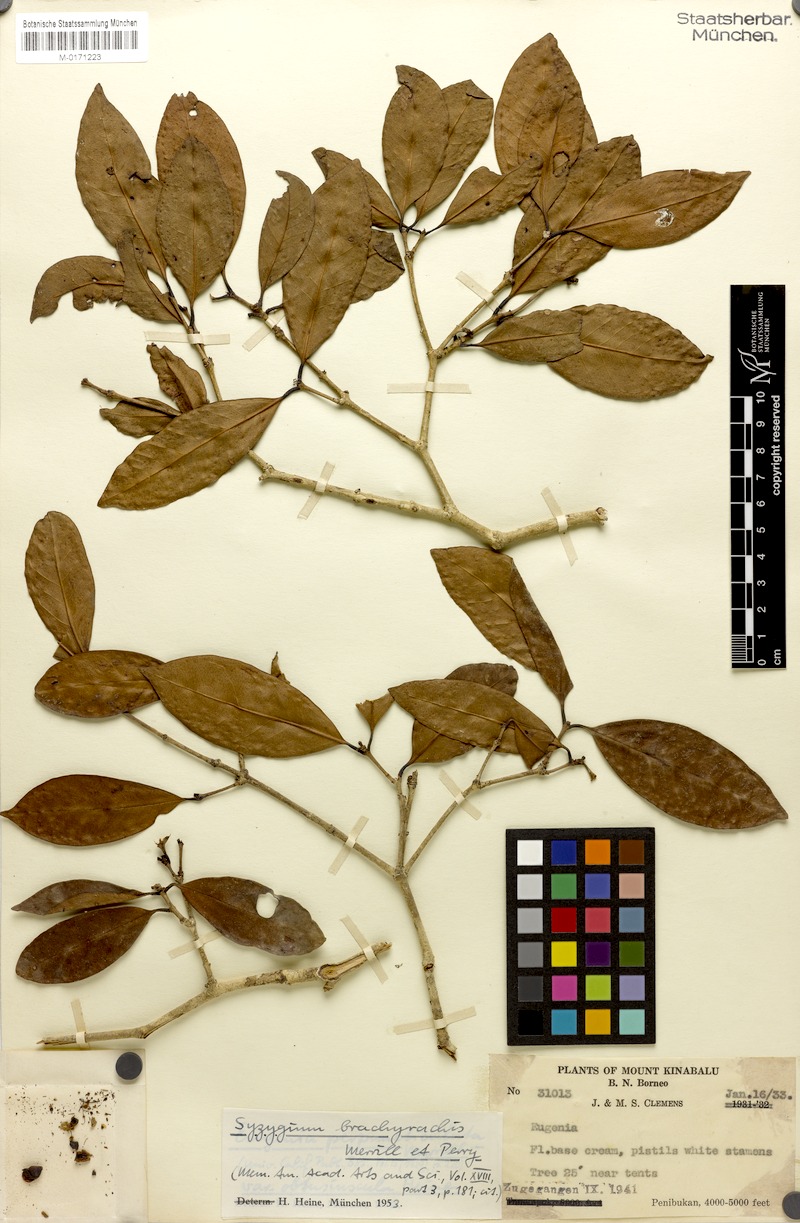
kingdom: Plantae
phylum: Tracheophyta
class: Magnoliopsida
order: Myrtales
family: Myrtaceae
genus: Syzygium
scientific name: Syzygium brachyrachis
